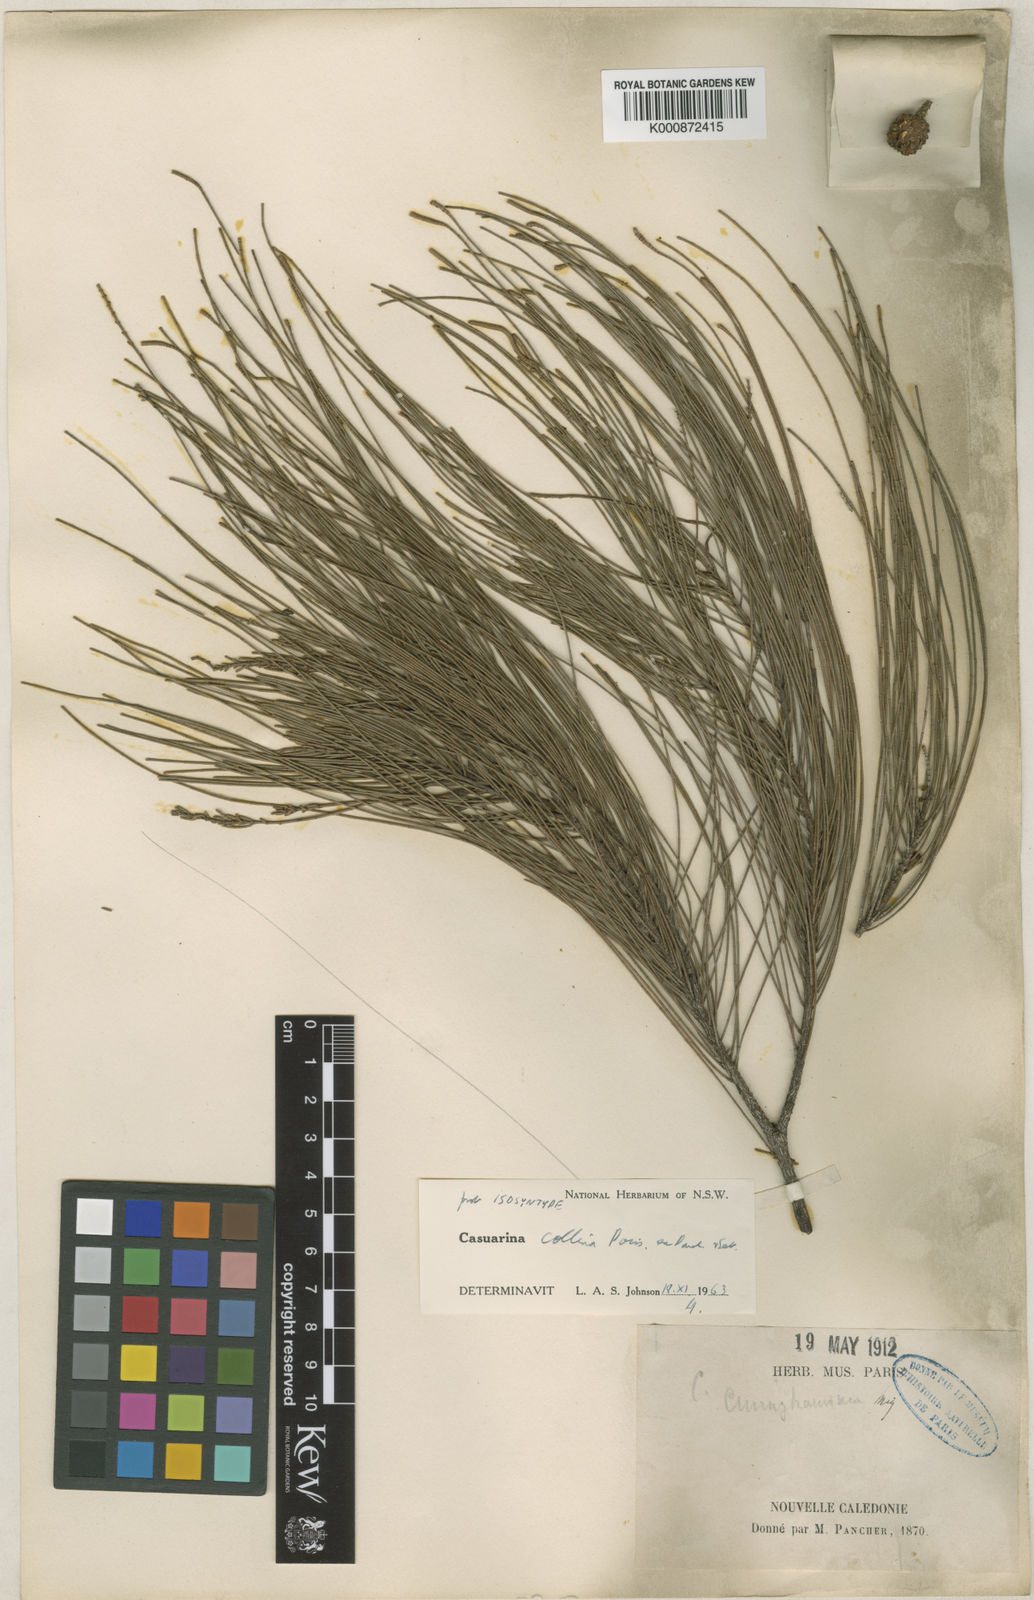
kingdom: Plantae
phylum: Tracheophyta
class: Magnoliopsida
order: Fagales
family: Casuarinaceae
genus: Casuarina
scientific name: Casuarina collina
